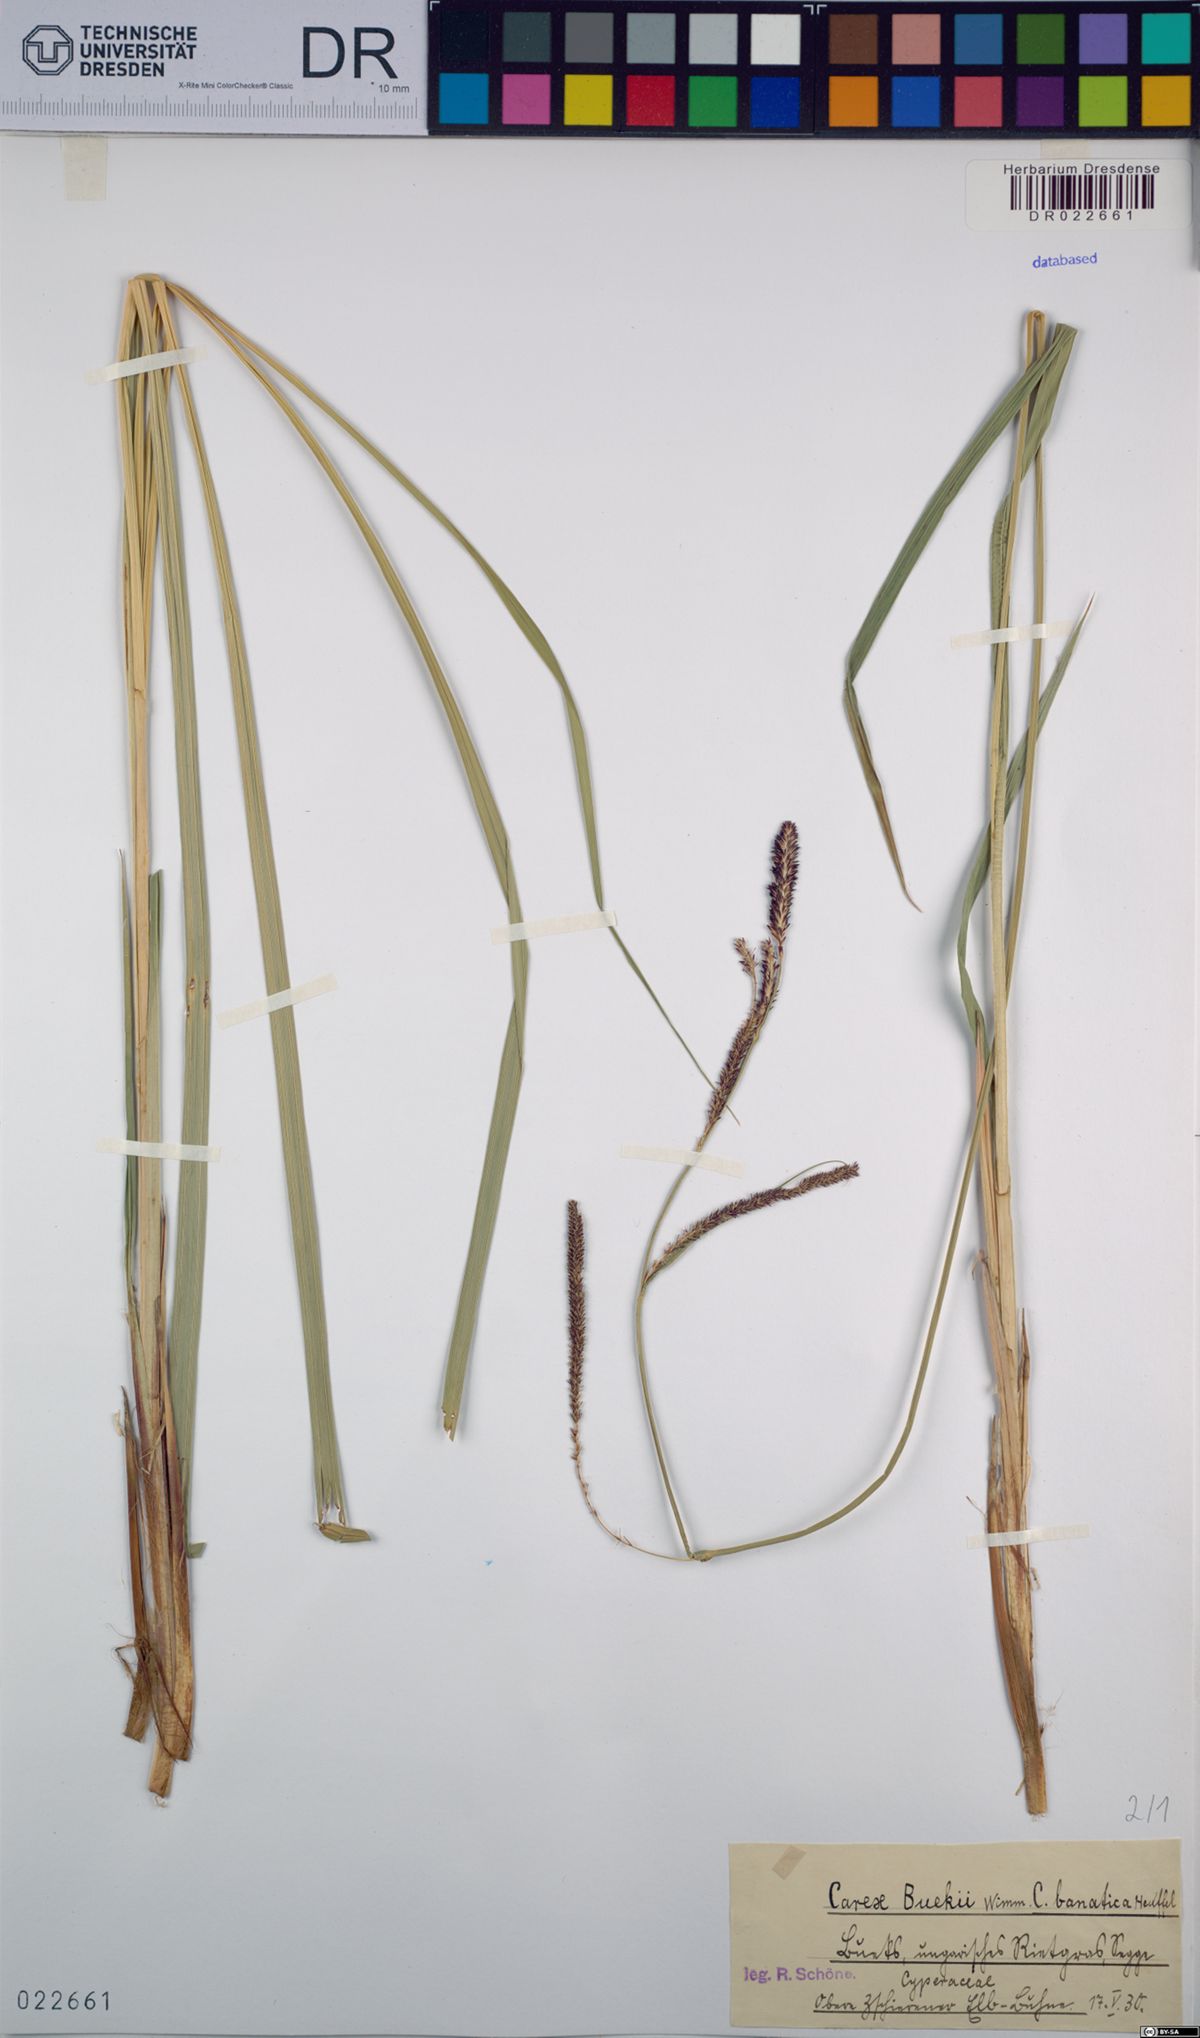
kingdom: Plantae
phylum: Tracheophyta
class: Liliopsida
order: Poales
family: Cyperaceae
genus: Carex
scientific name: Carex buekii
